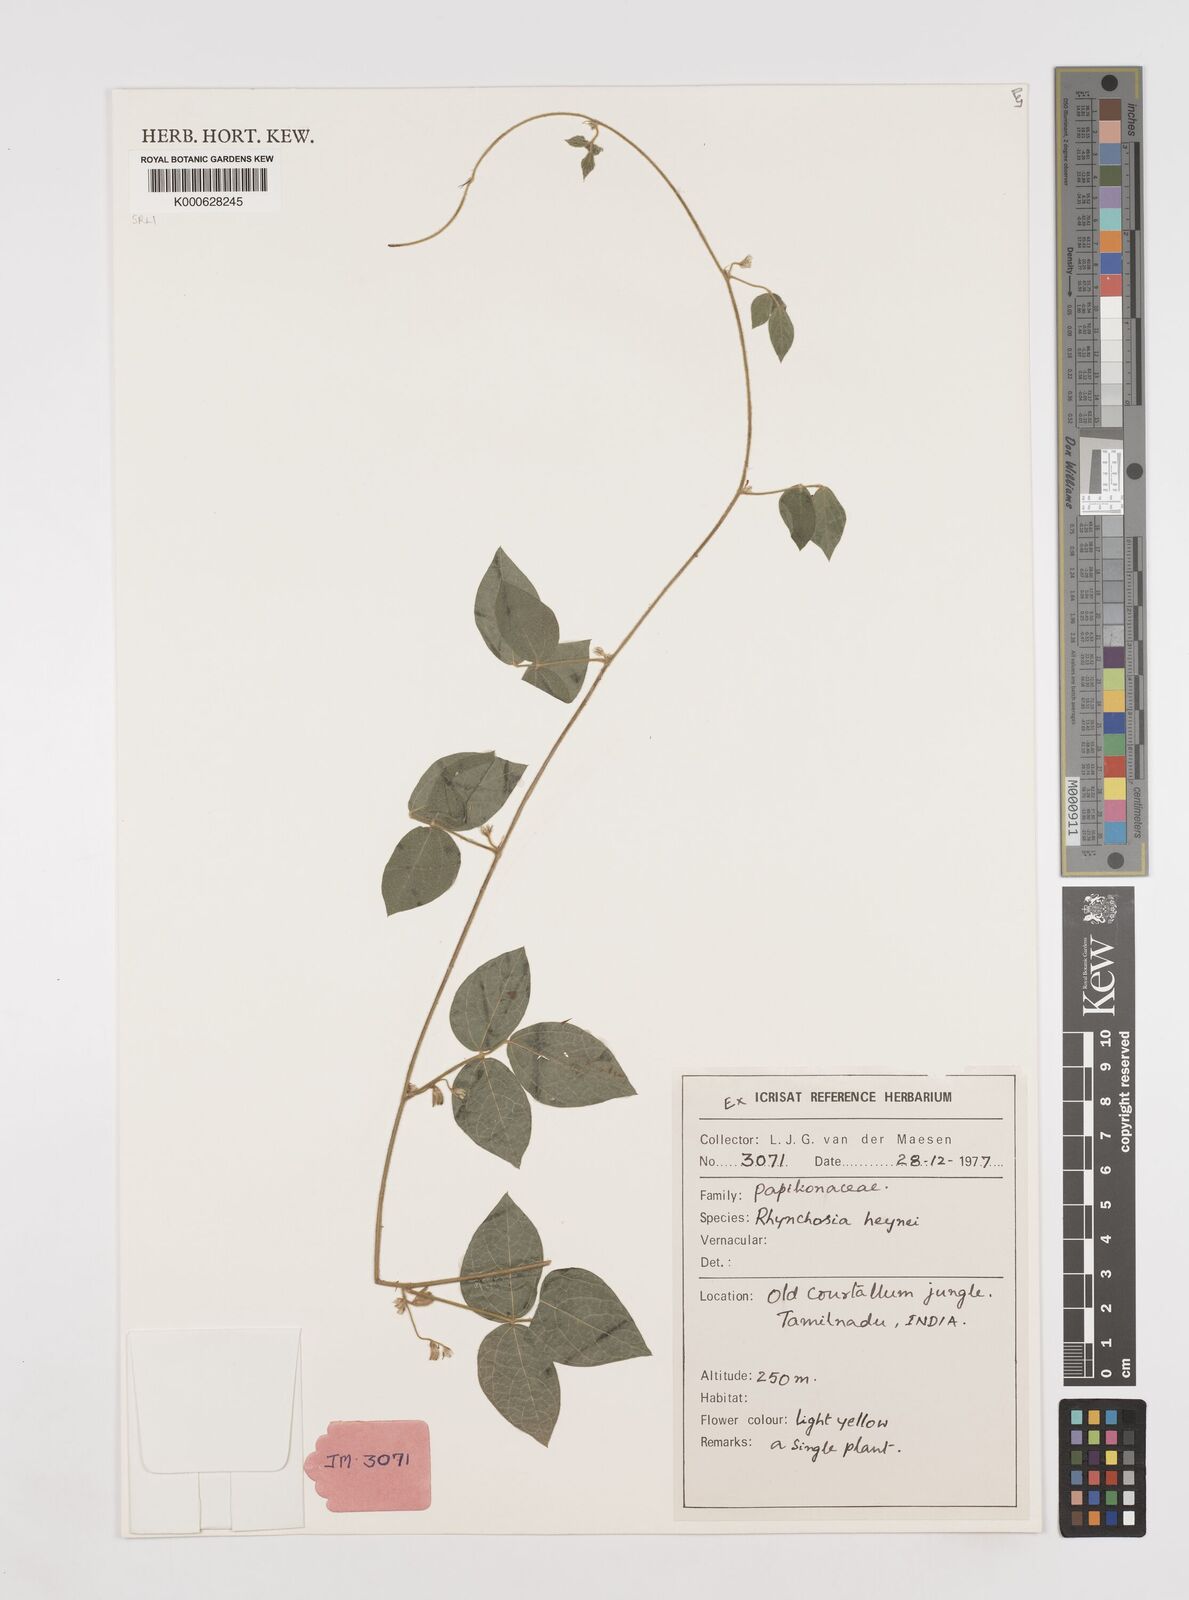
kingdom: Plantae
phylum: Tracheophyta
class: Magnoliopsida
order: Fabales
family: Fabaceae
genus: Rhynchosia
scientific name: Rhynchosia heynei
